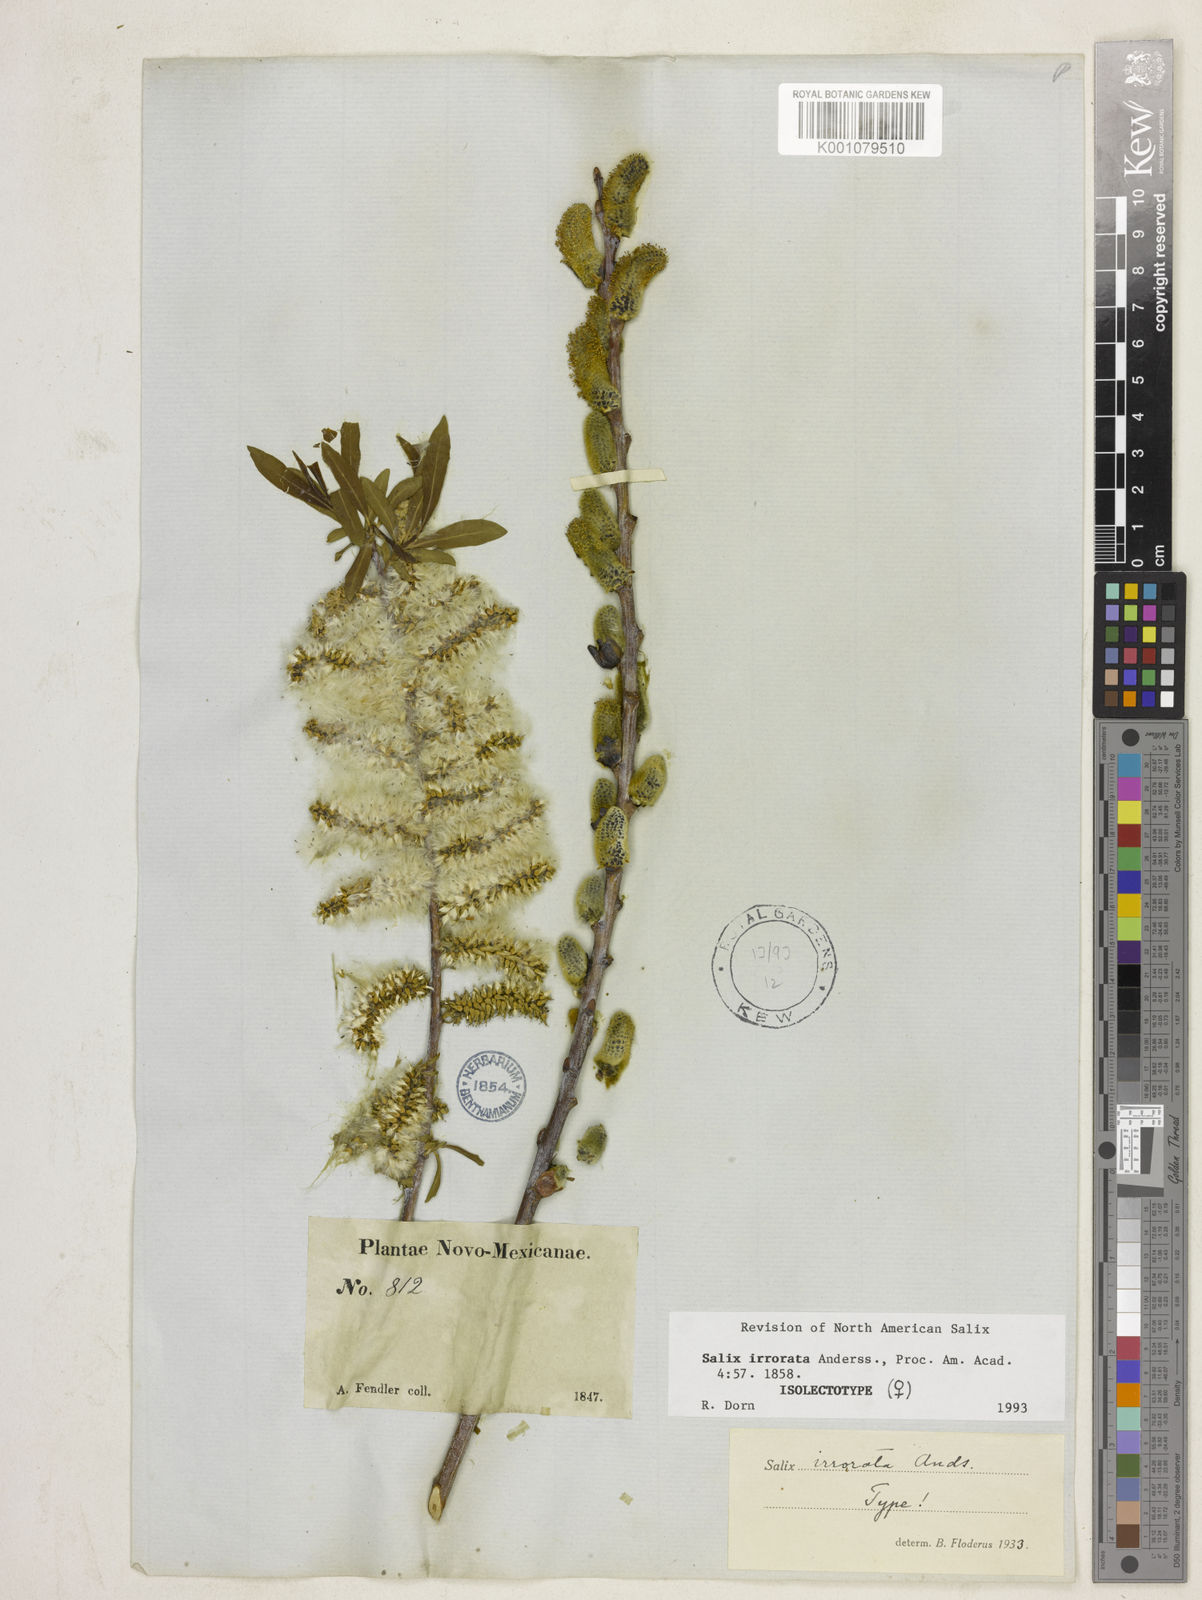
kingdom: Plantae
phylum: Tracheophyta
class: Magnoliopsida
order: Malpighiales
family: Salicaceae
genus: Salix
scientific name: Salix irrorata
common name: Blue-stem willow
